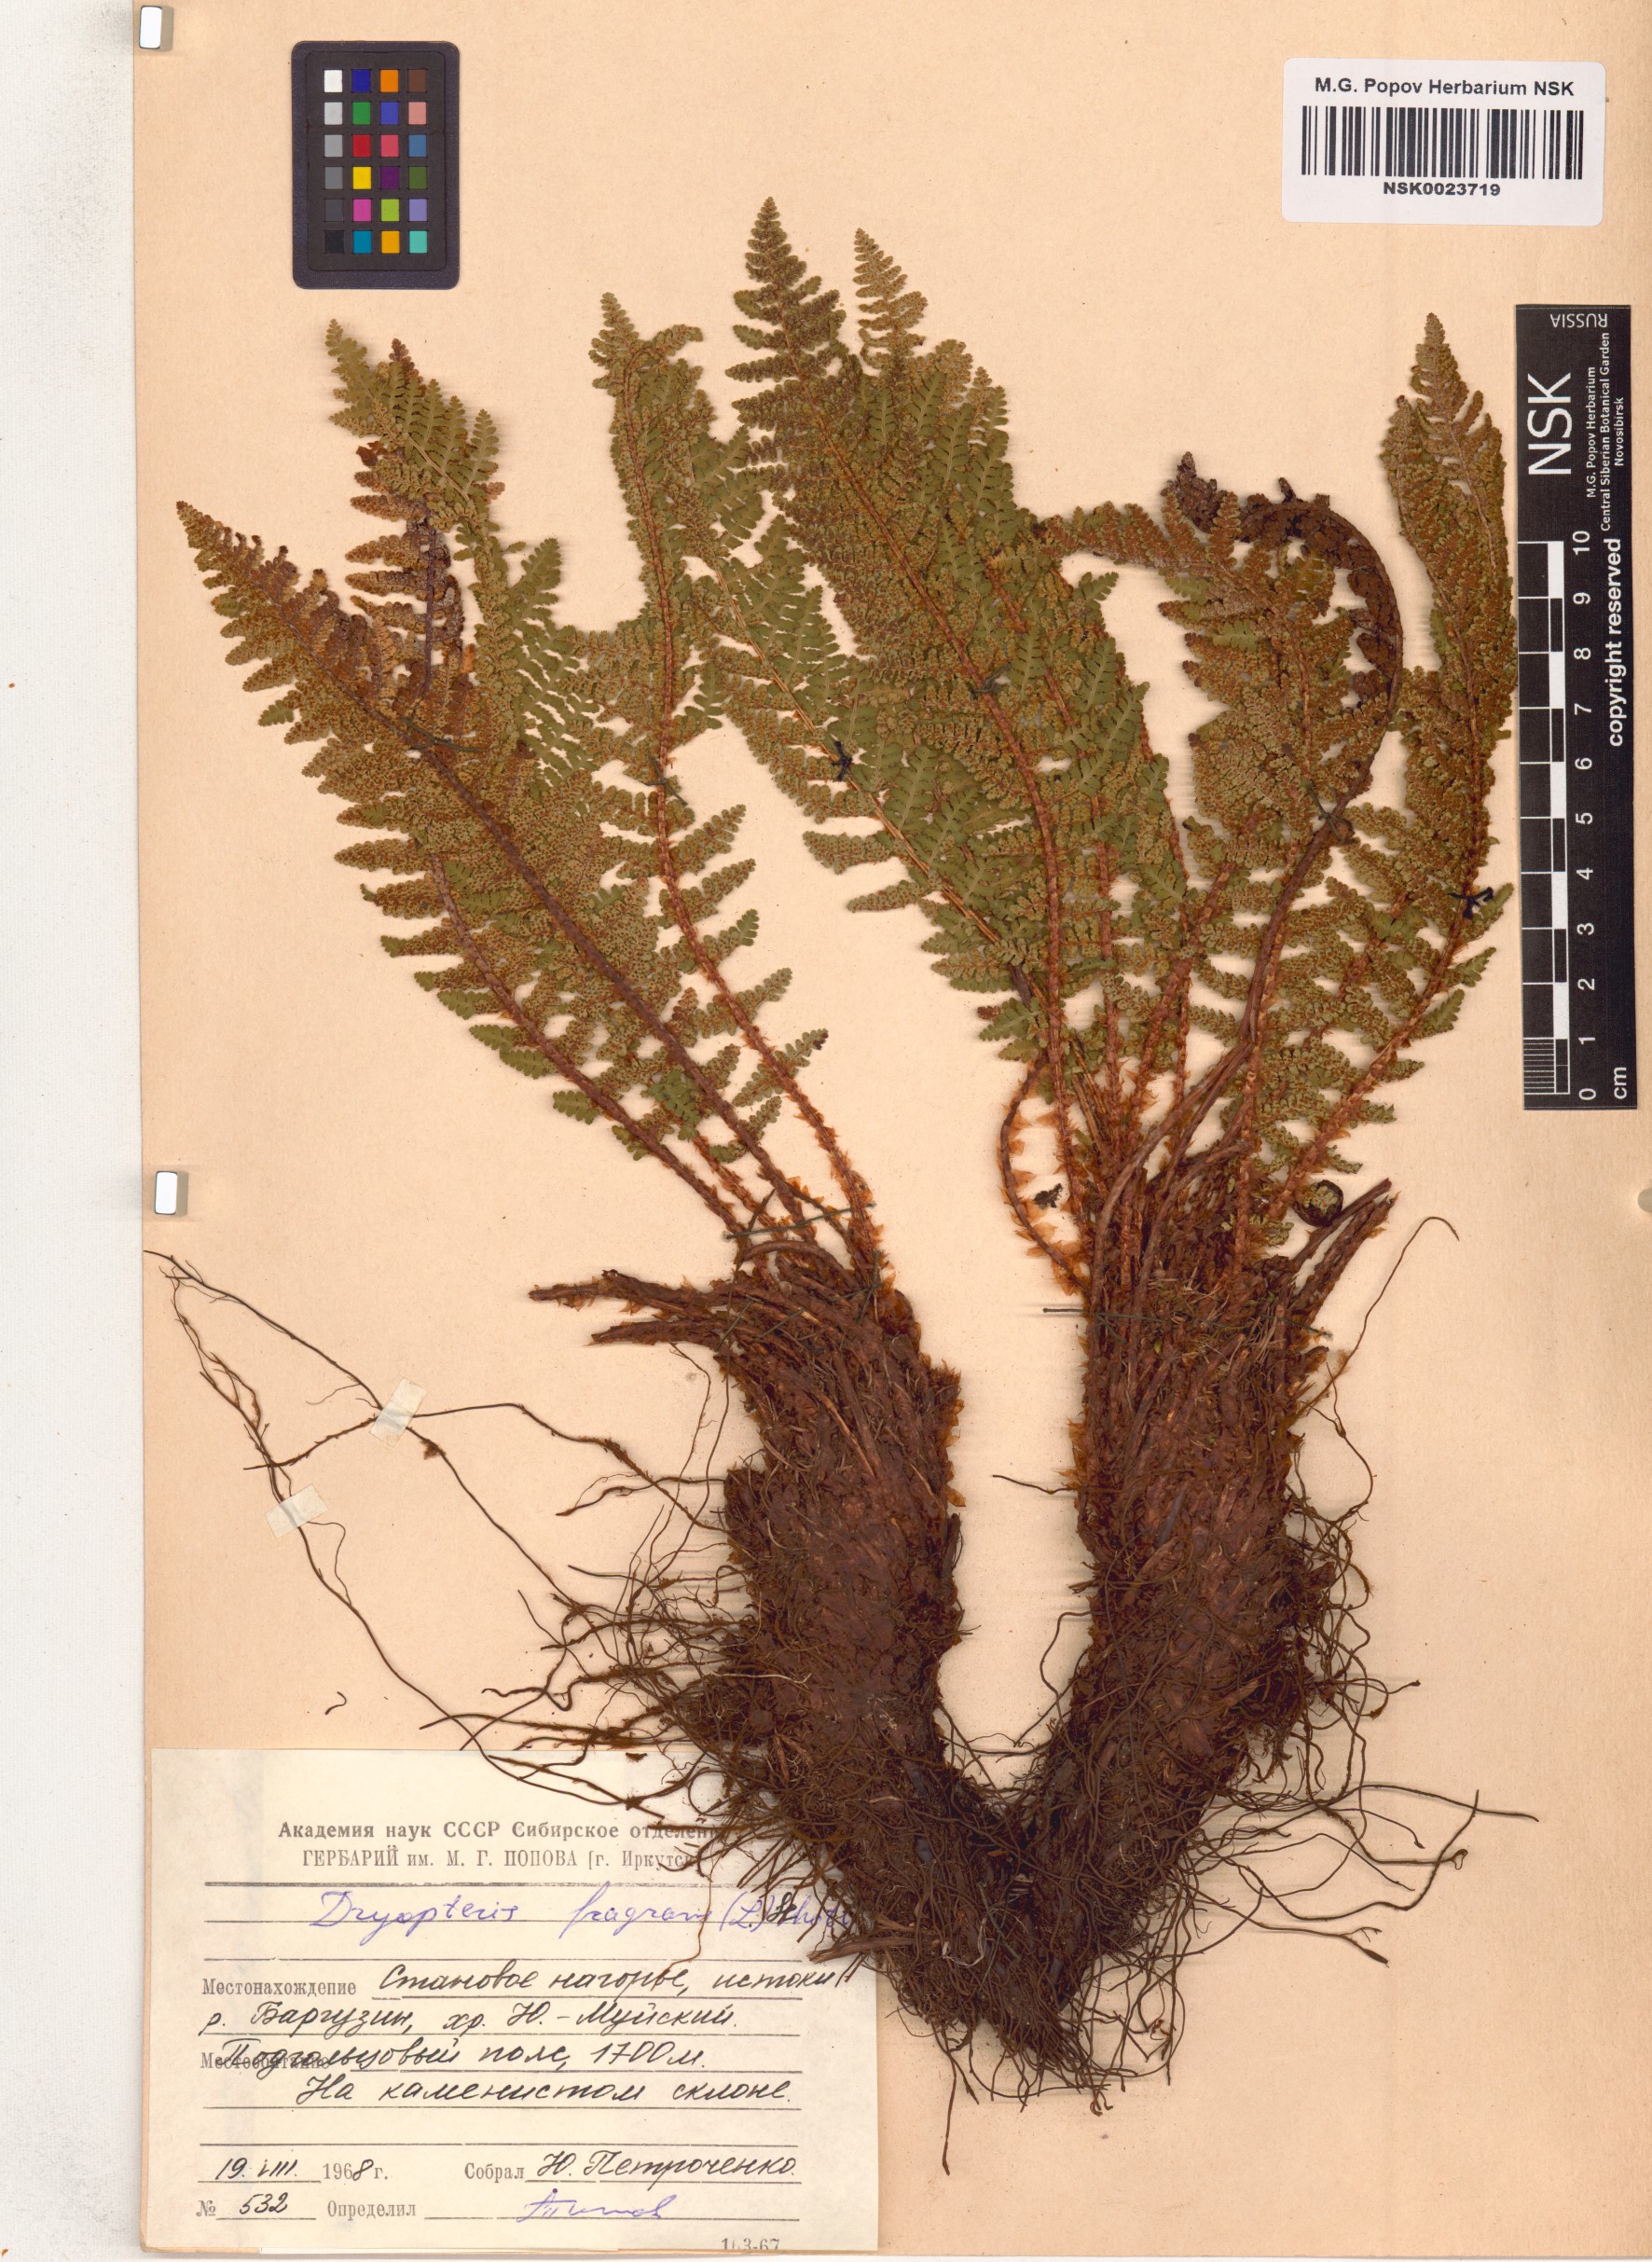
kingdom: Plantae
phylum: Tracheophyta
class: Polypodiopsida
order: Polypodiales
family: Dryopteridaceae
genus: Dryopteris
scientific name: Dryopteris fragrans
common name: Fragrant wood fern
